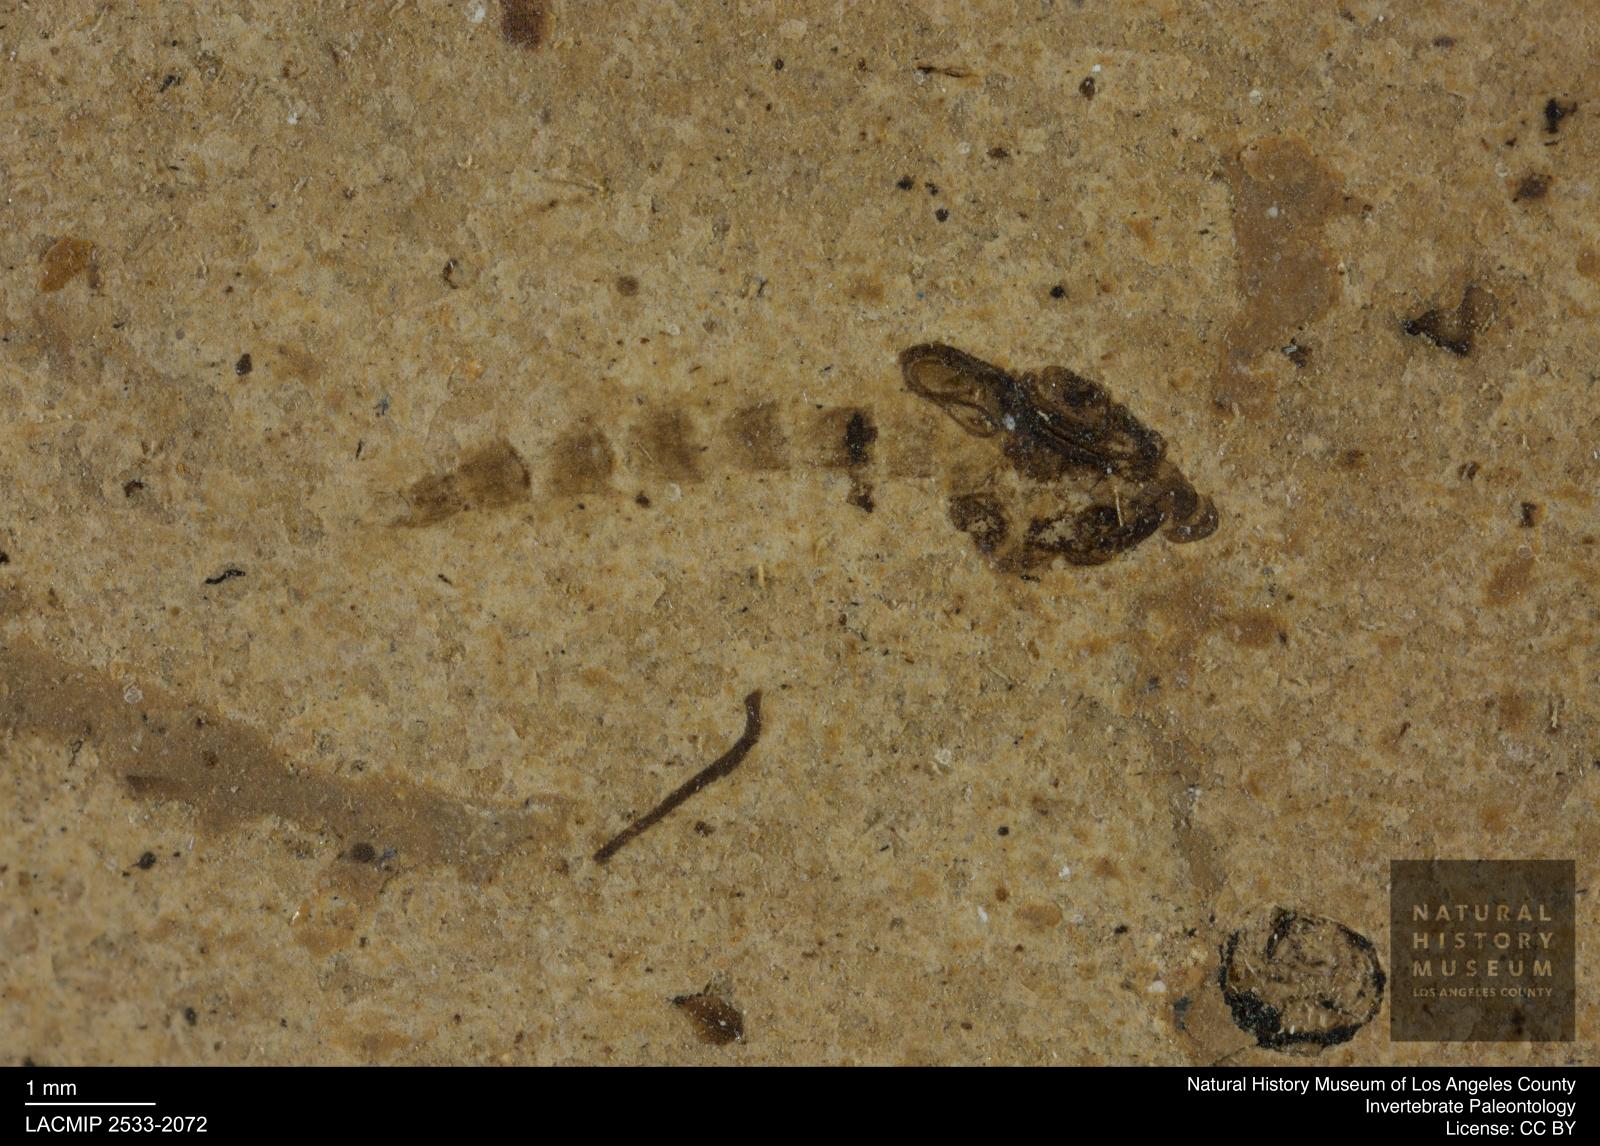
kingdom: Animalia
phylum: Arthropoda
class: Insecta
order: Diptera
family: Chironomidae
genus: Pelopiina
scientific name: Pelopiina
